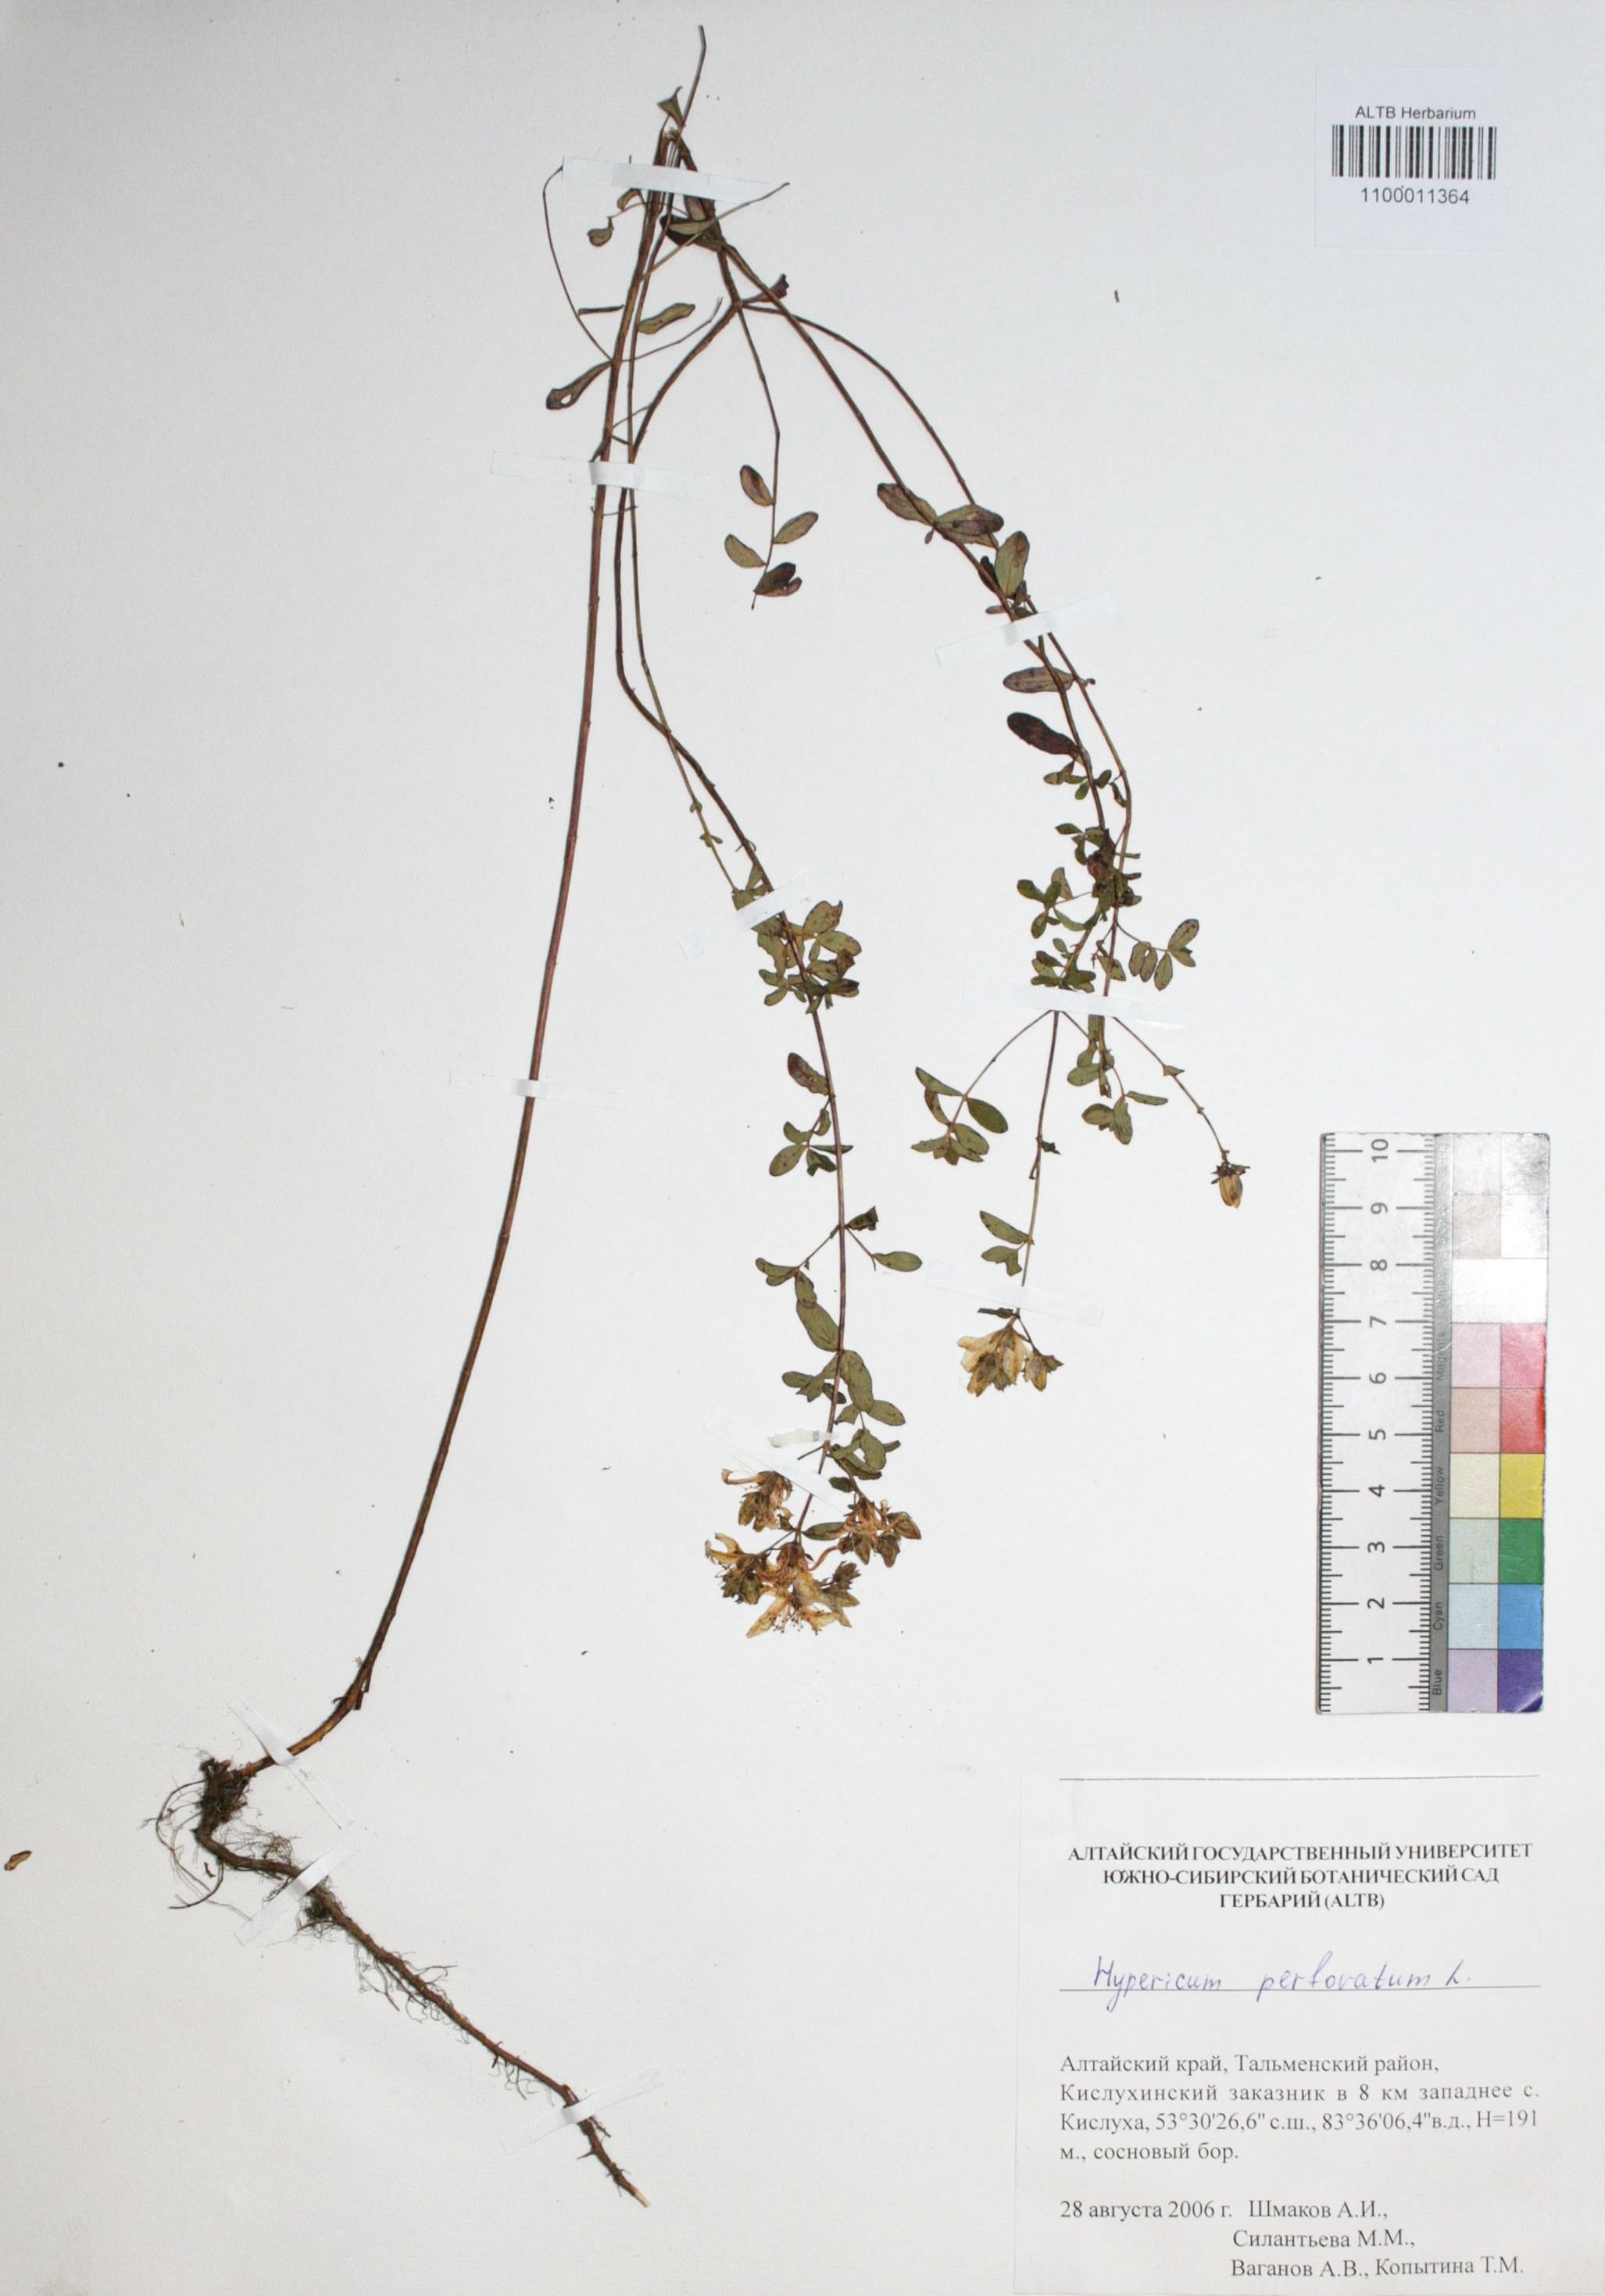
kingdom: Plantae
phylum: Tracheophyta
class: Magnoliopsida
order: Malpighiales
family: Hypericaceae
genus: Hypericum
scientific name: Hypericum perforatum
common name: Common st. johnswort
